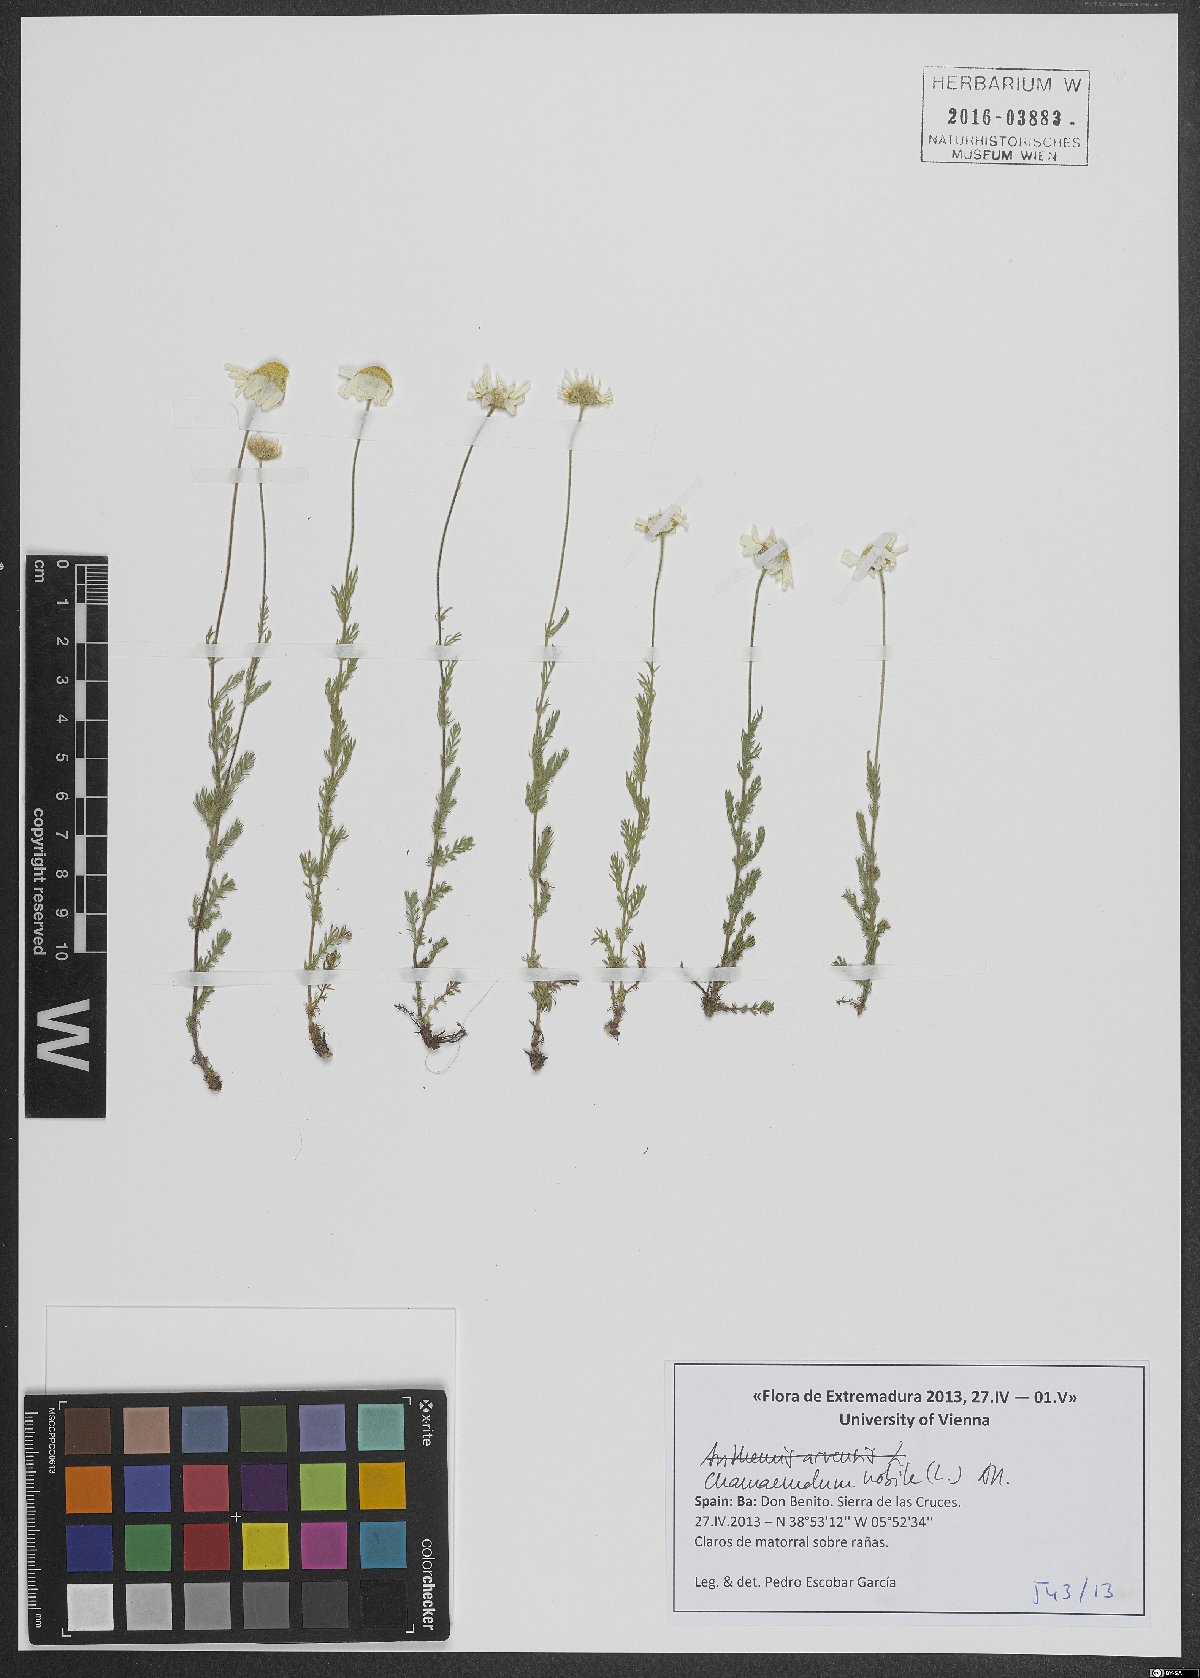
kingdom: Plantae
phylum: Tracheophyta
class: Magnoliopsida
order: Asterales
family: Asteraceae
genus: Chamaemelum
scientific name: Chamaemelum nobile
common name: Roman chamomile
